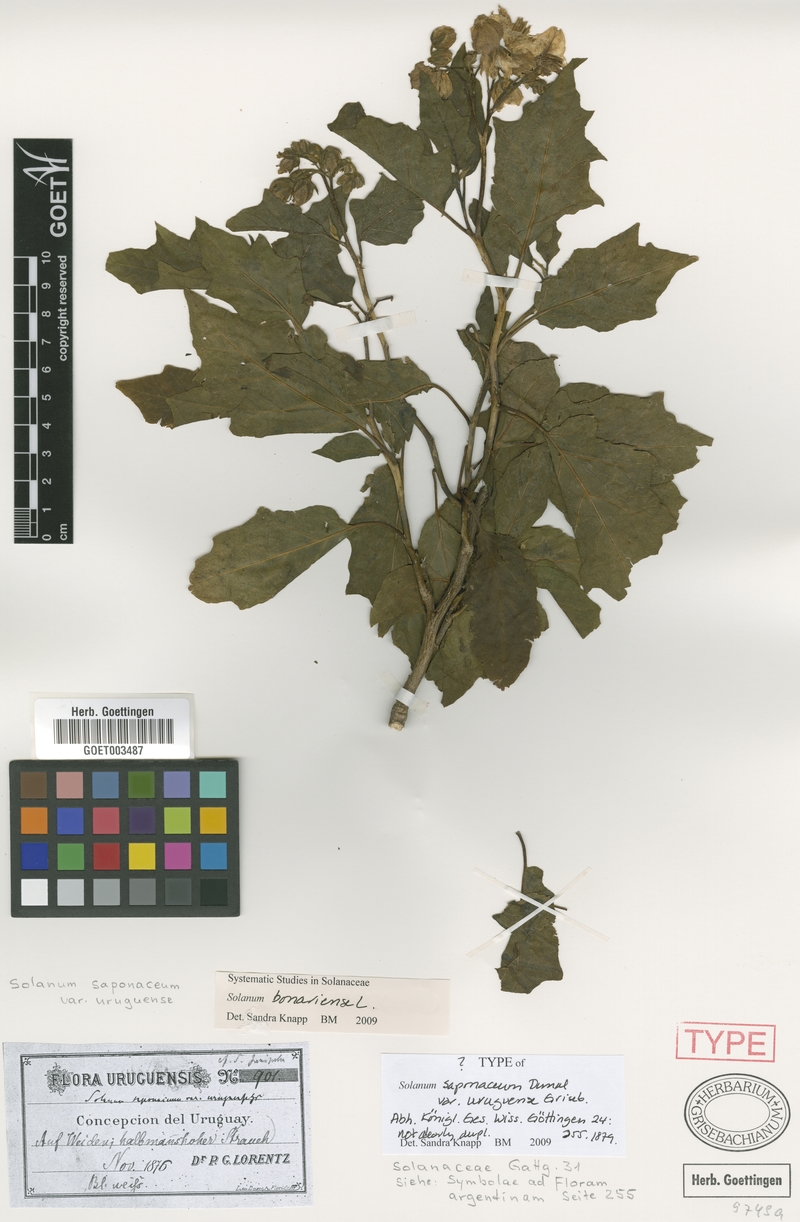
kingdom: Plantae
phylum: Tracheophyta
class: Magnoliopsida
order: Solanales
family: Solanaceae
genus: Solanum
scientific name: Solanum bonariense
